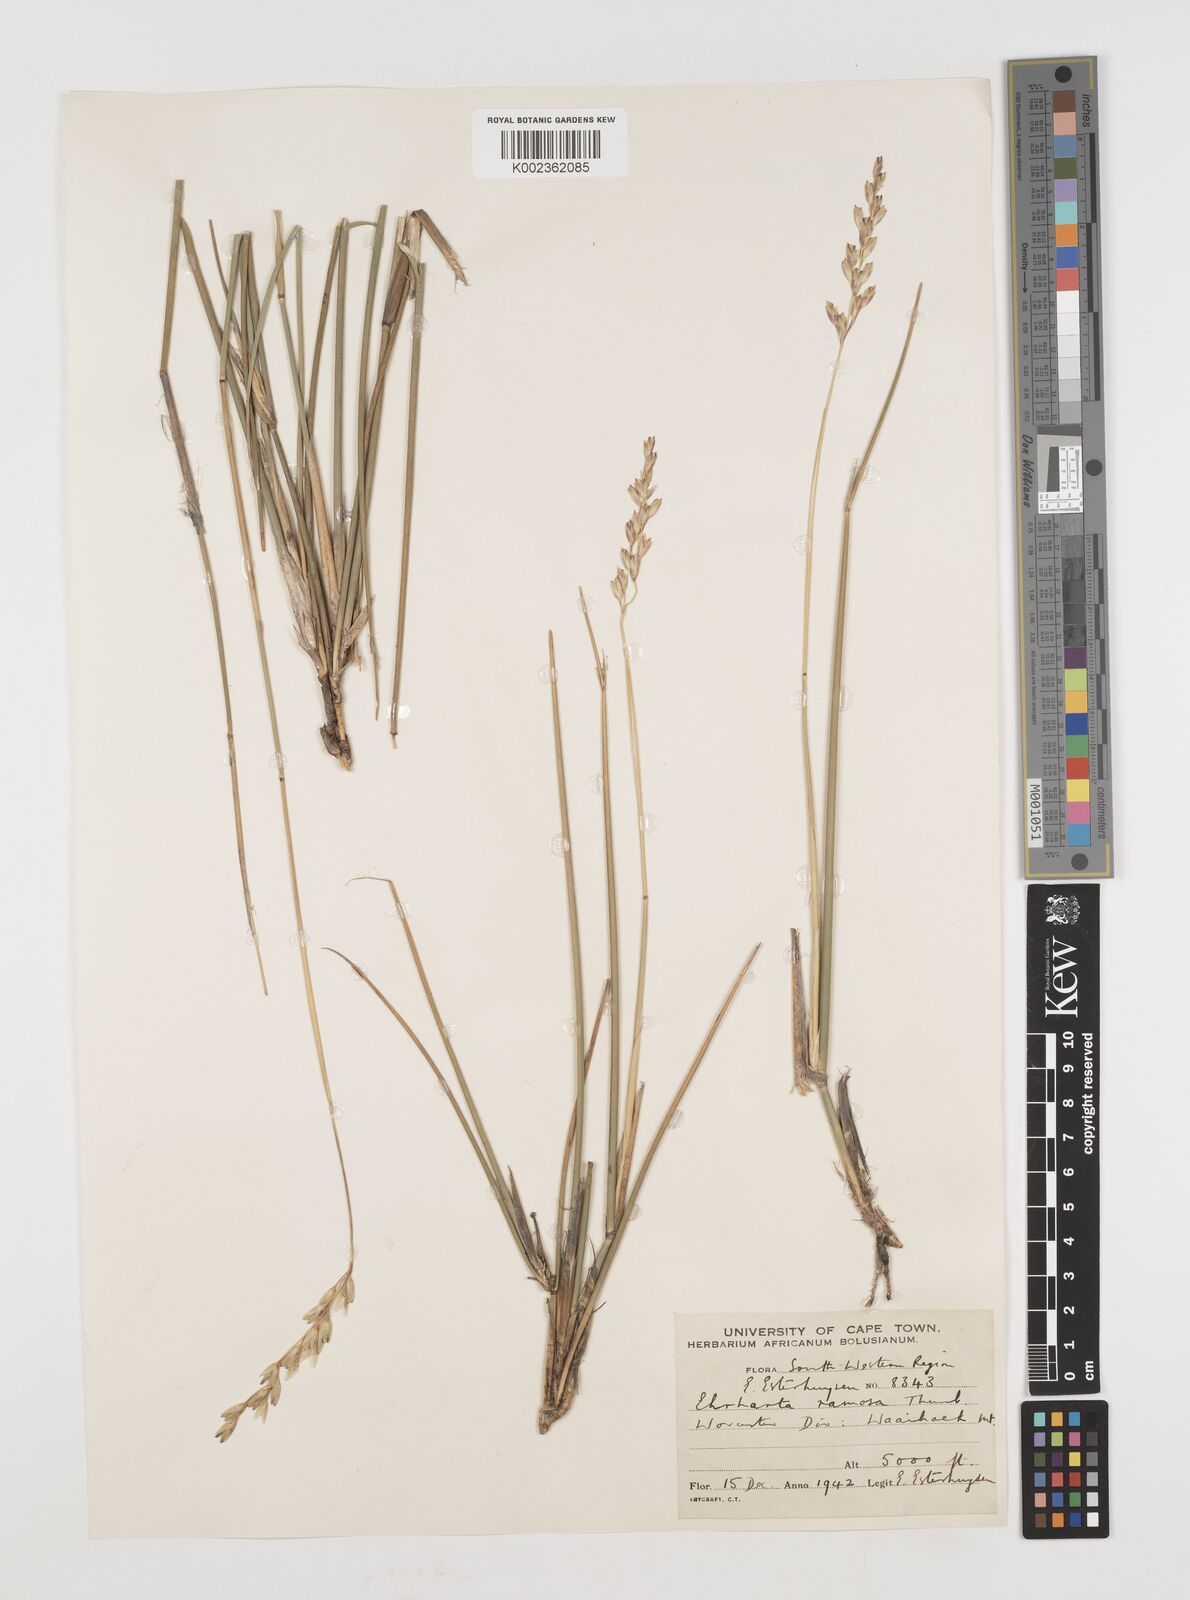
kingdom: Plantae
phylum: Tracheophyta
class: Liliopsida
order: Poales
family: Poaceae
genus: Ehrharta
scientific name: Ehrharta digyna
